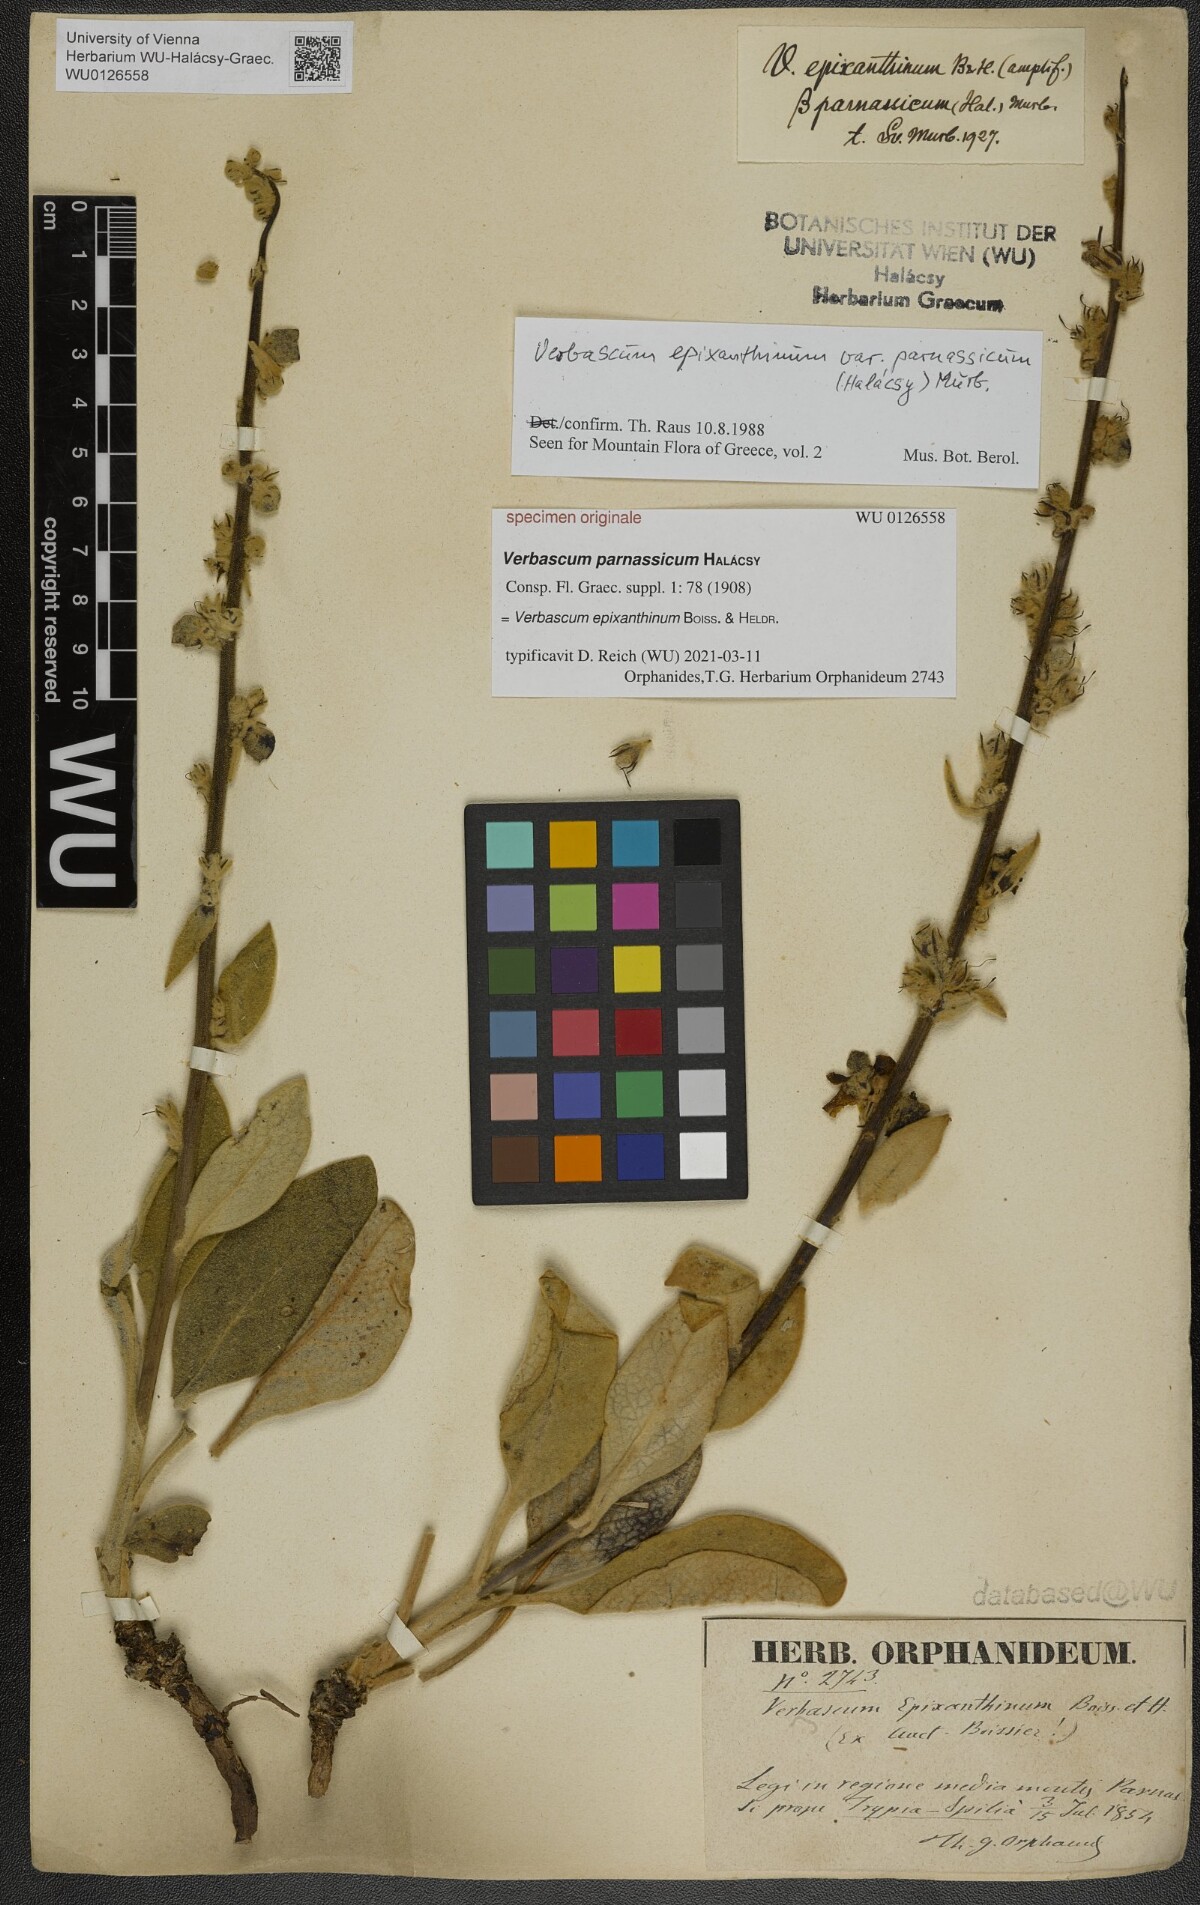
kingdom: Plantae
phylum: Tracheophyta
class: Magnoliopsida
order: Lamiales
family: Scrophulariaceae
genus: Verbascum
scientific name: Verbascum epixanthinum
